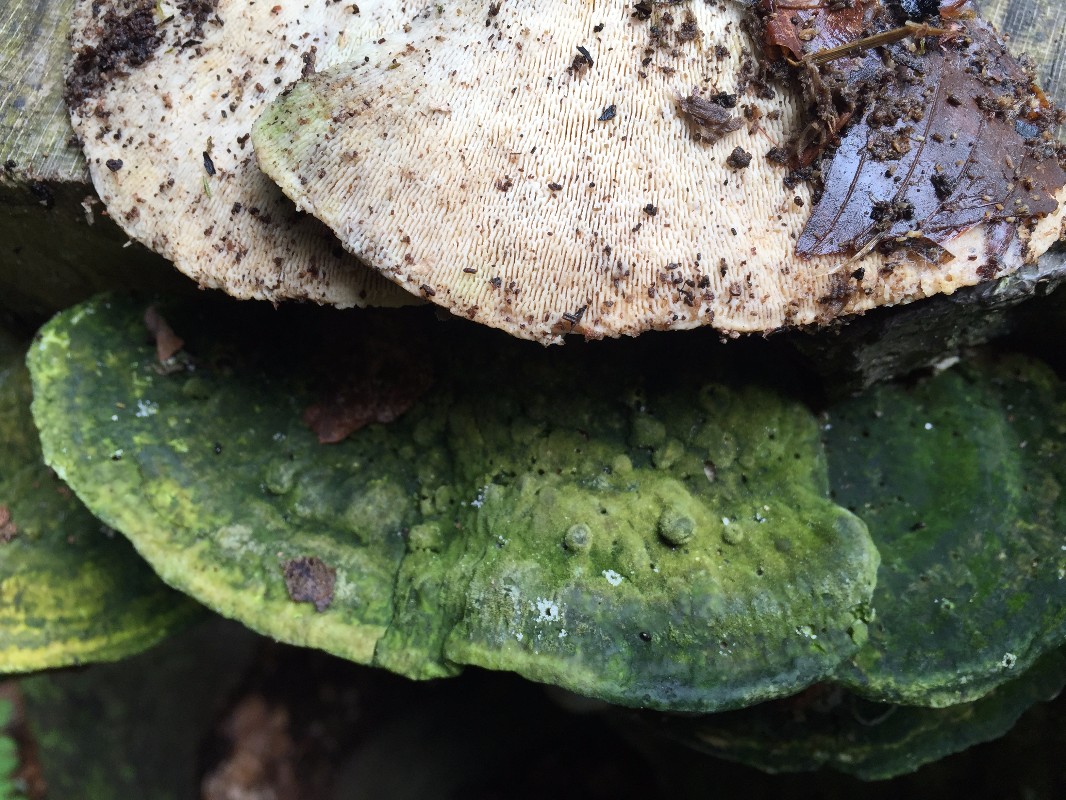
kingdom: Fungi
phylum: Basidiomycota
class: Agaricomycetes
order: Polyporales
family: Polyporaceae
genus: Trametes
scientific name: Trametes gibbosa
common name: puklet læderporesvamp
